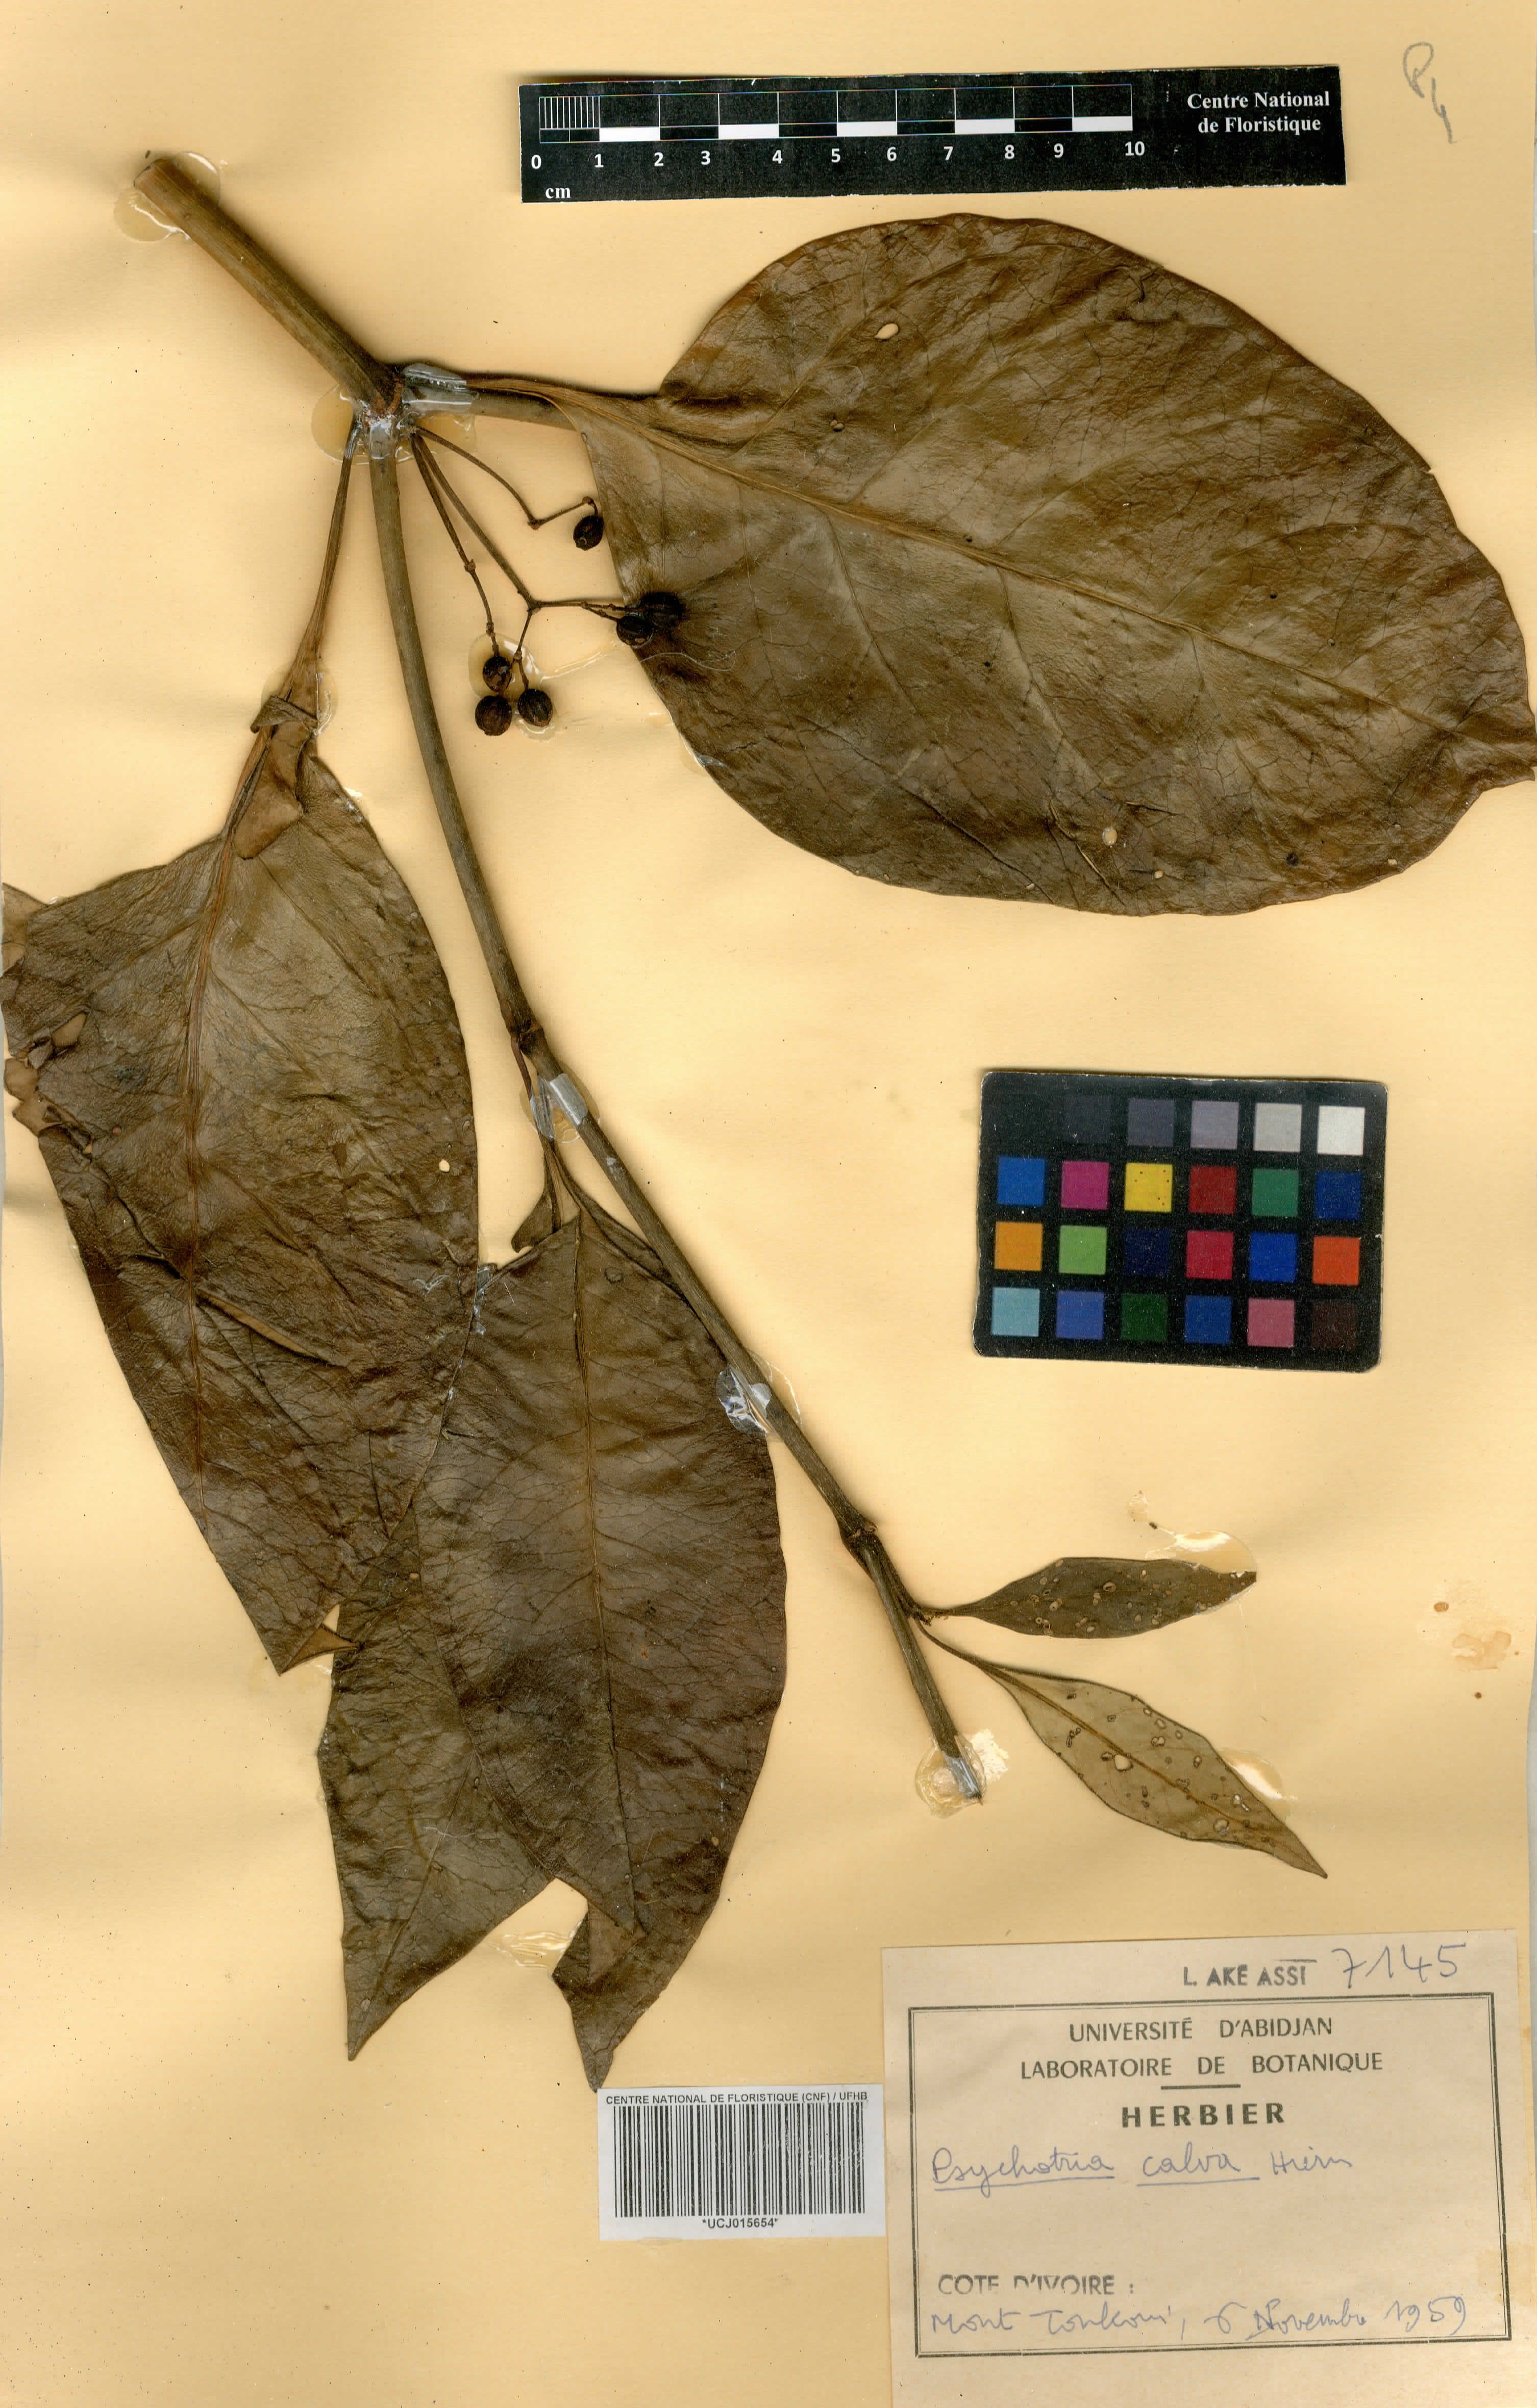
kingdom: Plantae
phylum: Tracheophyta
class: Magnoliopsida
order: Gentianales
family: Rubiaceae
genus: Psychotria
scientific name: Psychotria calva
